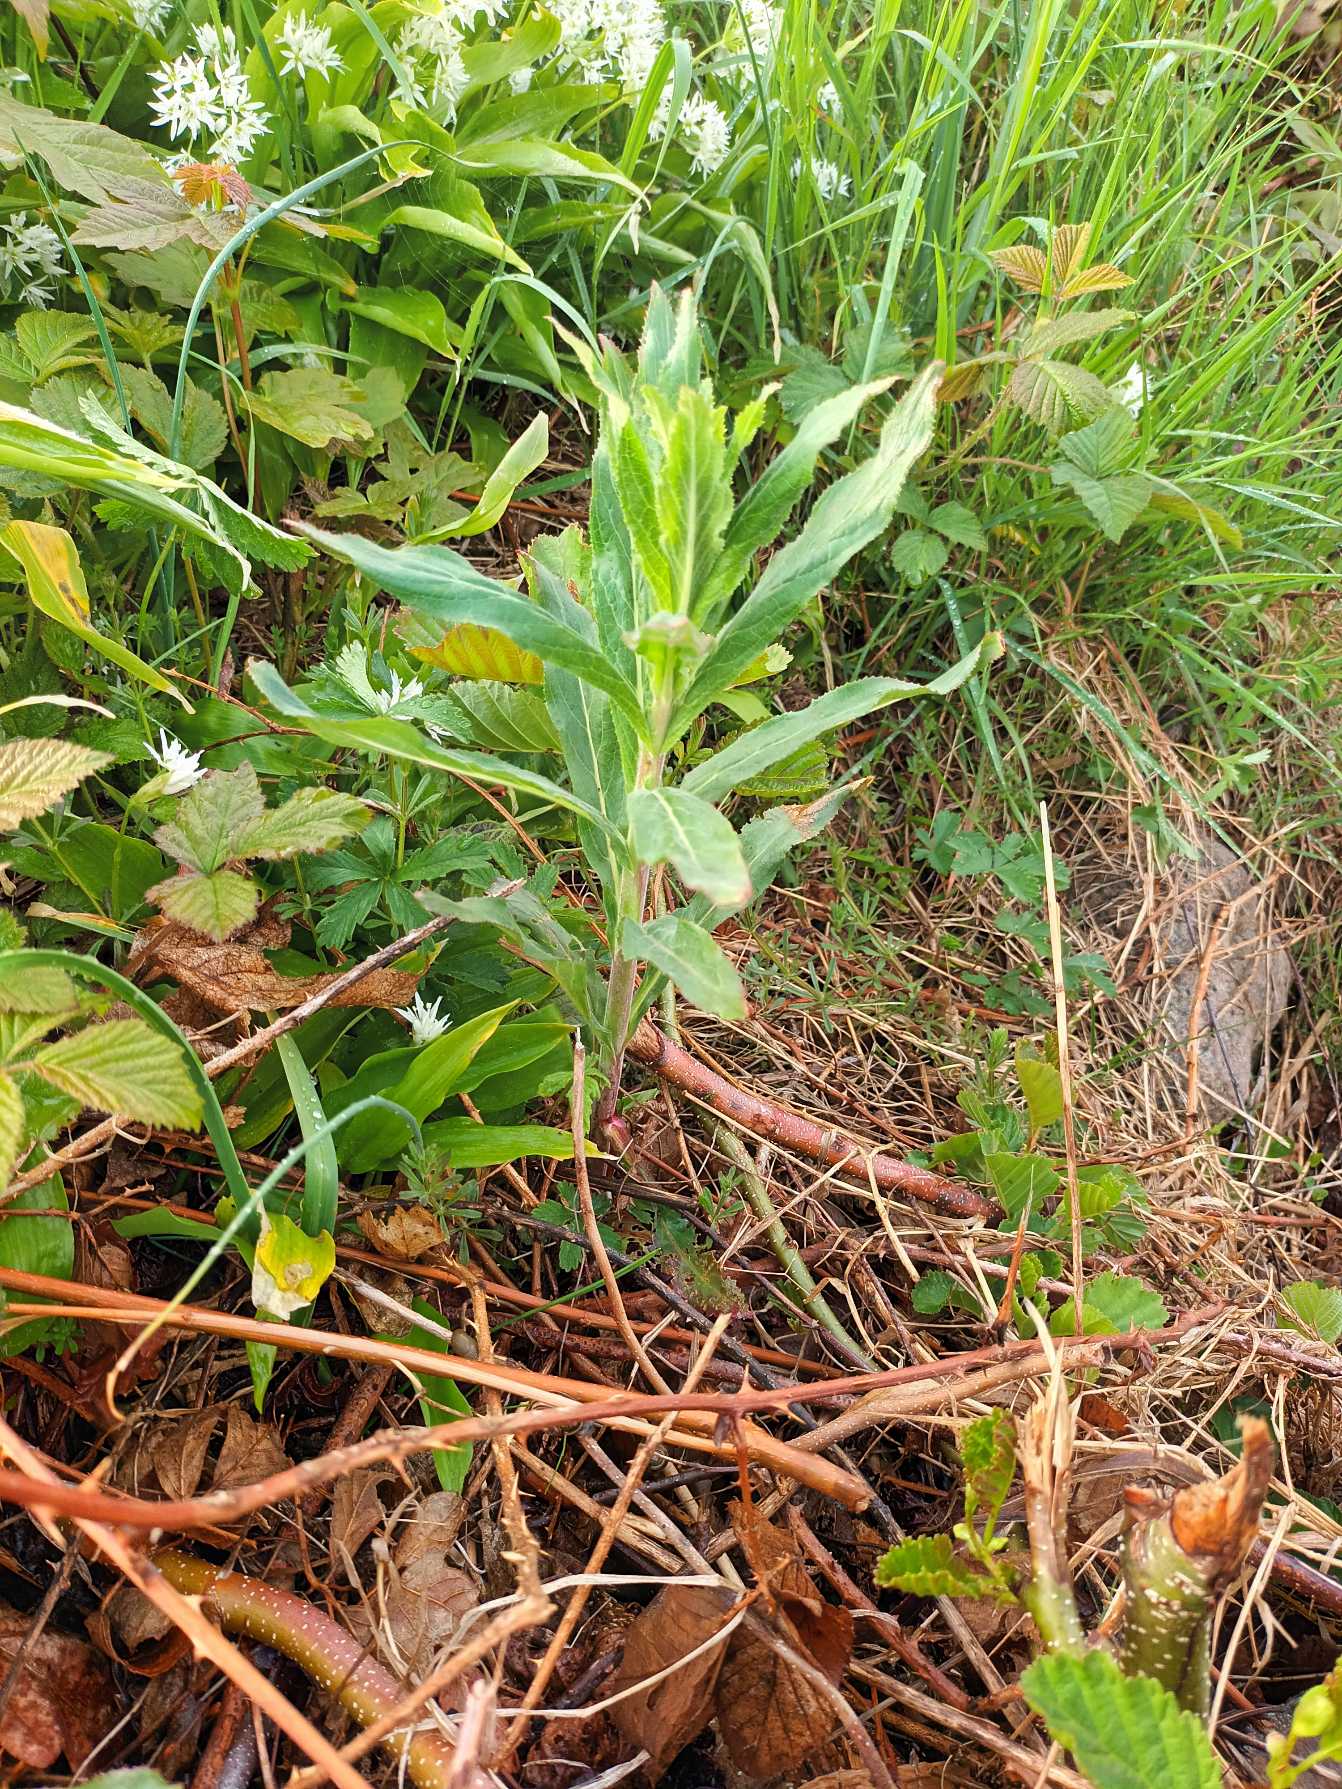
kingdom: Plantae
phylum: Tracheophyta
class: Magnoliopsida
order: Myrtales
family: Onagraceae
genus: Epilobium
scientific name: Epilobium hirsutum
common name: Lådden dueurt
